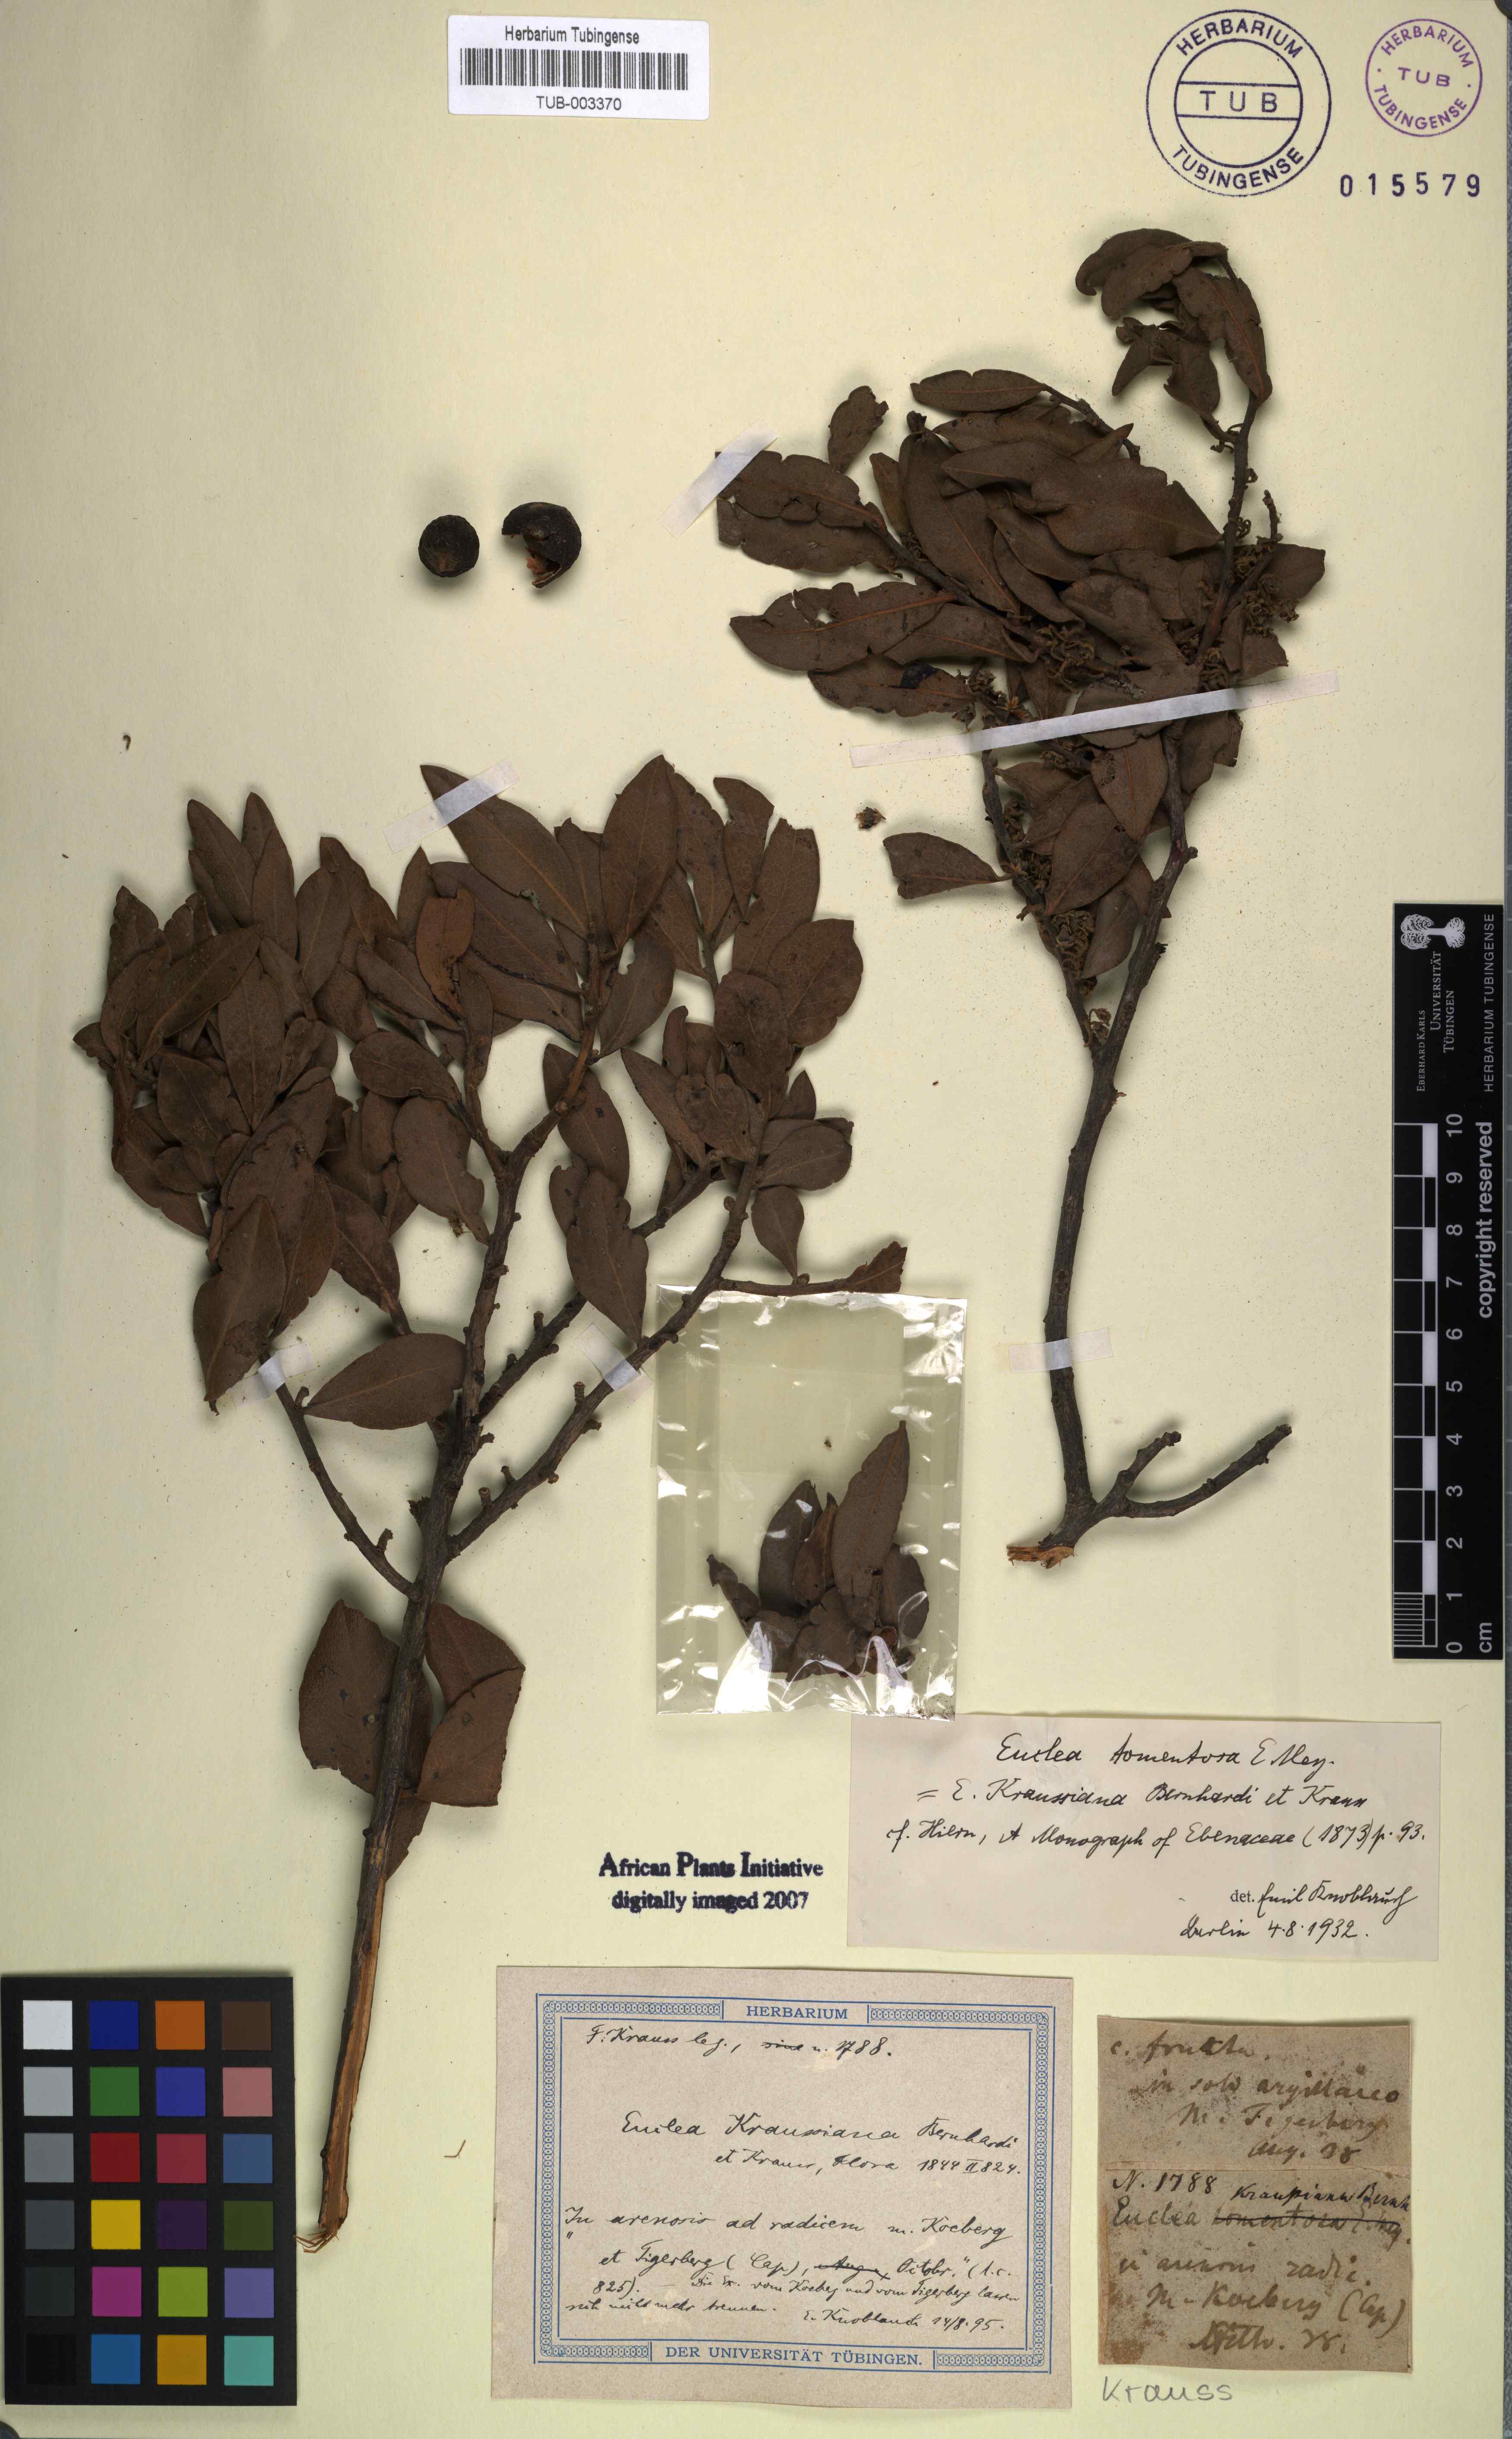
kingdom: Plantae
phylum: Tracheophyta
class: Magnoliopsida
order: Ericales
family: Ebenaceae
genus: Euclea
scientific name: Euclea tomentosa
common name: Honey guarri
